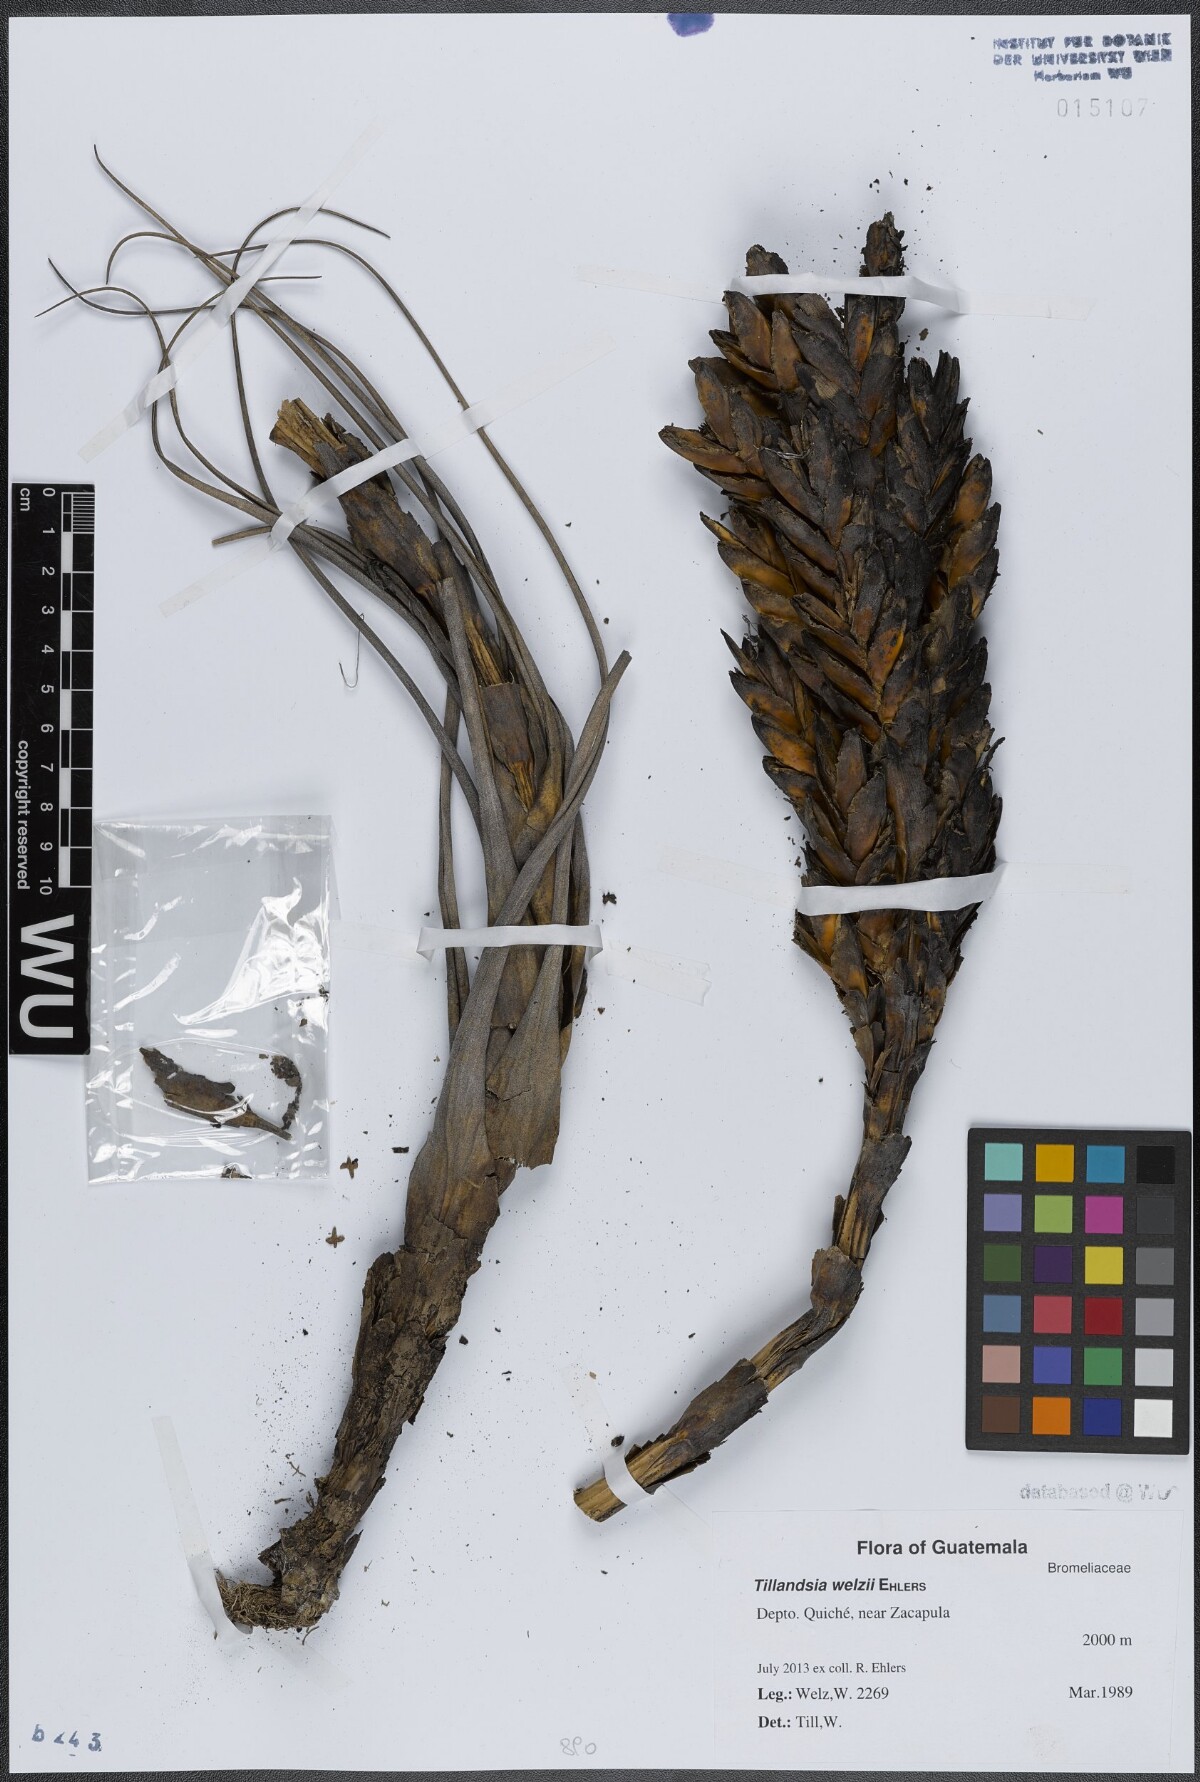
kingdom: Plantae
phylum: Tracheophyta
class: Liliopsida
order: Poales
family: Bromeliaceae
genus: Tillandsia
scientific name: Tillandsia welzii
